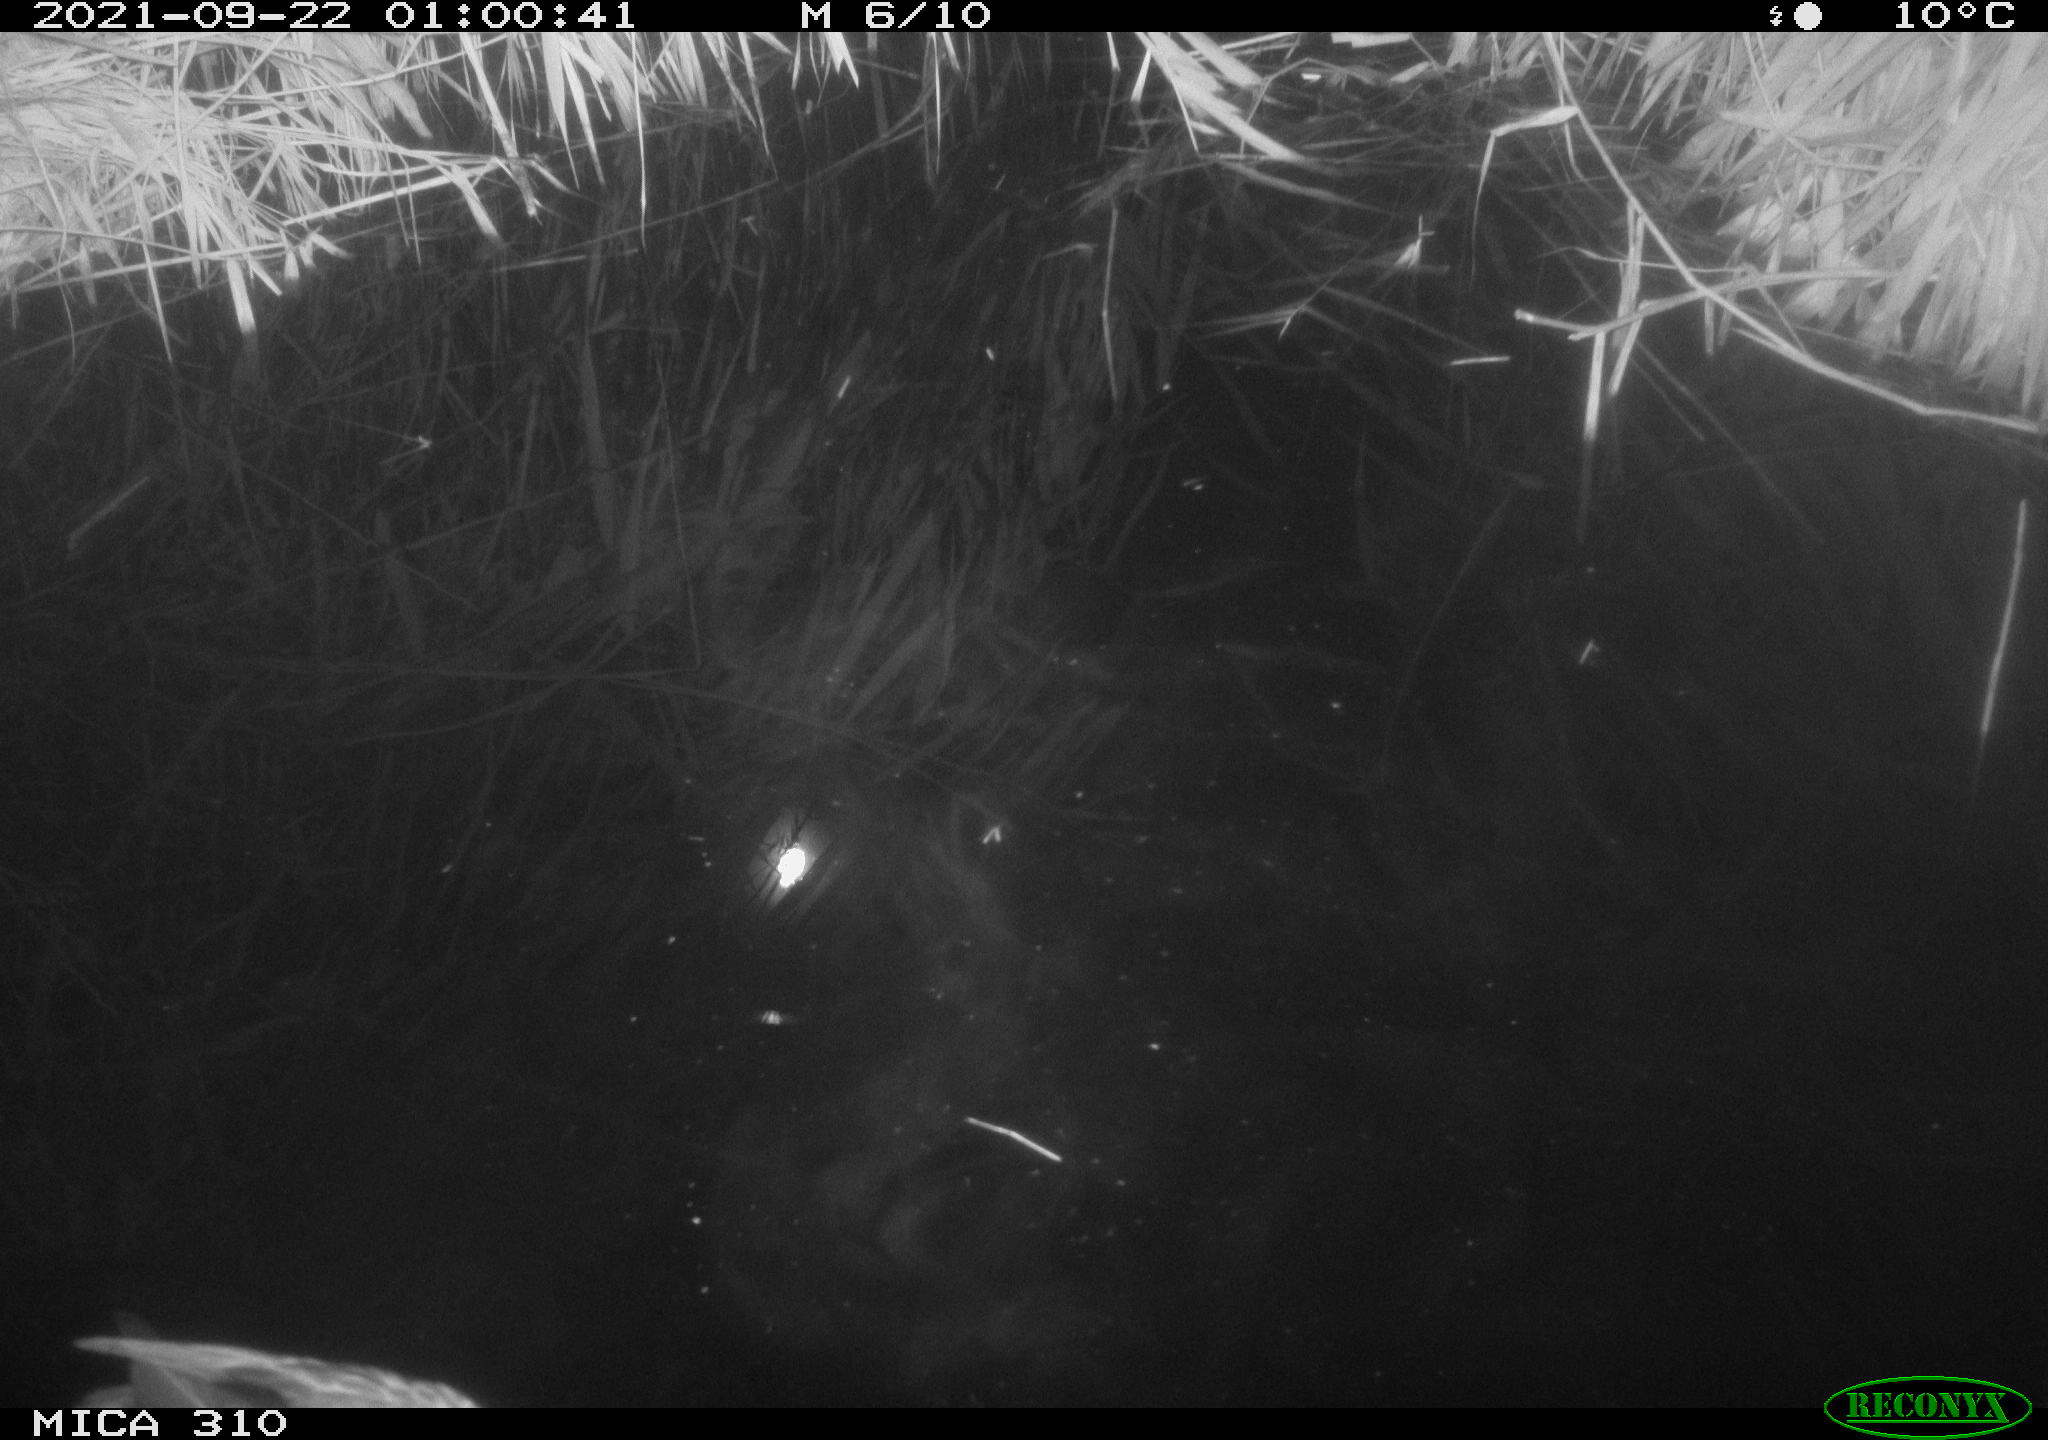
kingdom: Animalia
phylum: Chordata
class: Aves
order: Anseriformes
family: Anatidae
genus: Mareca
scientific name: Mareca strepera
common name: Gadwall
